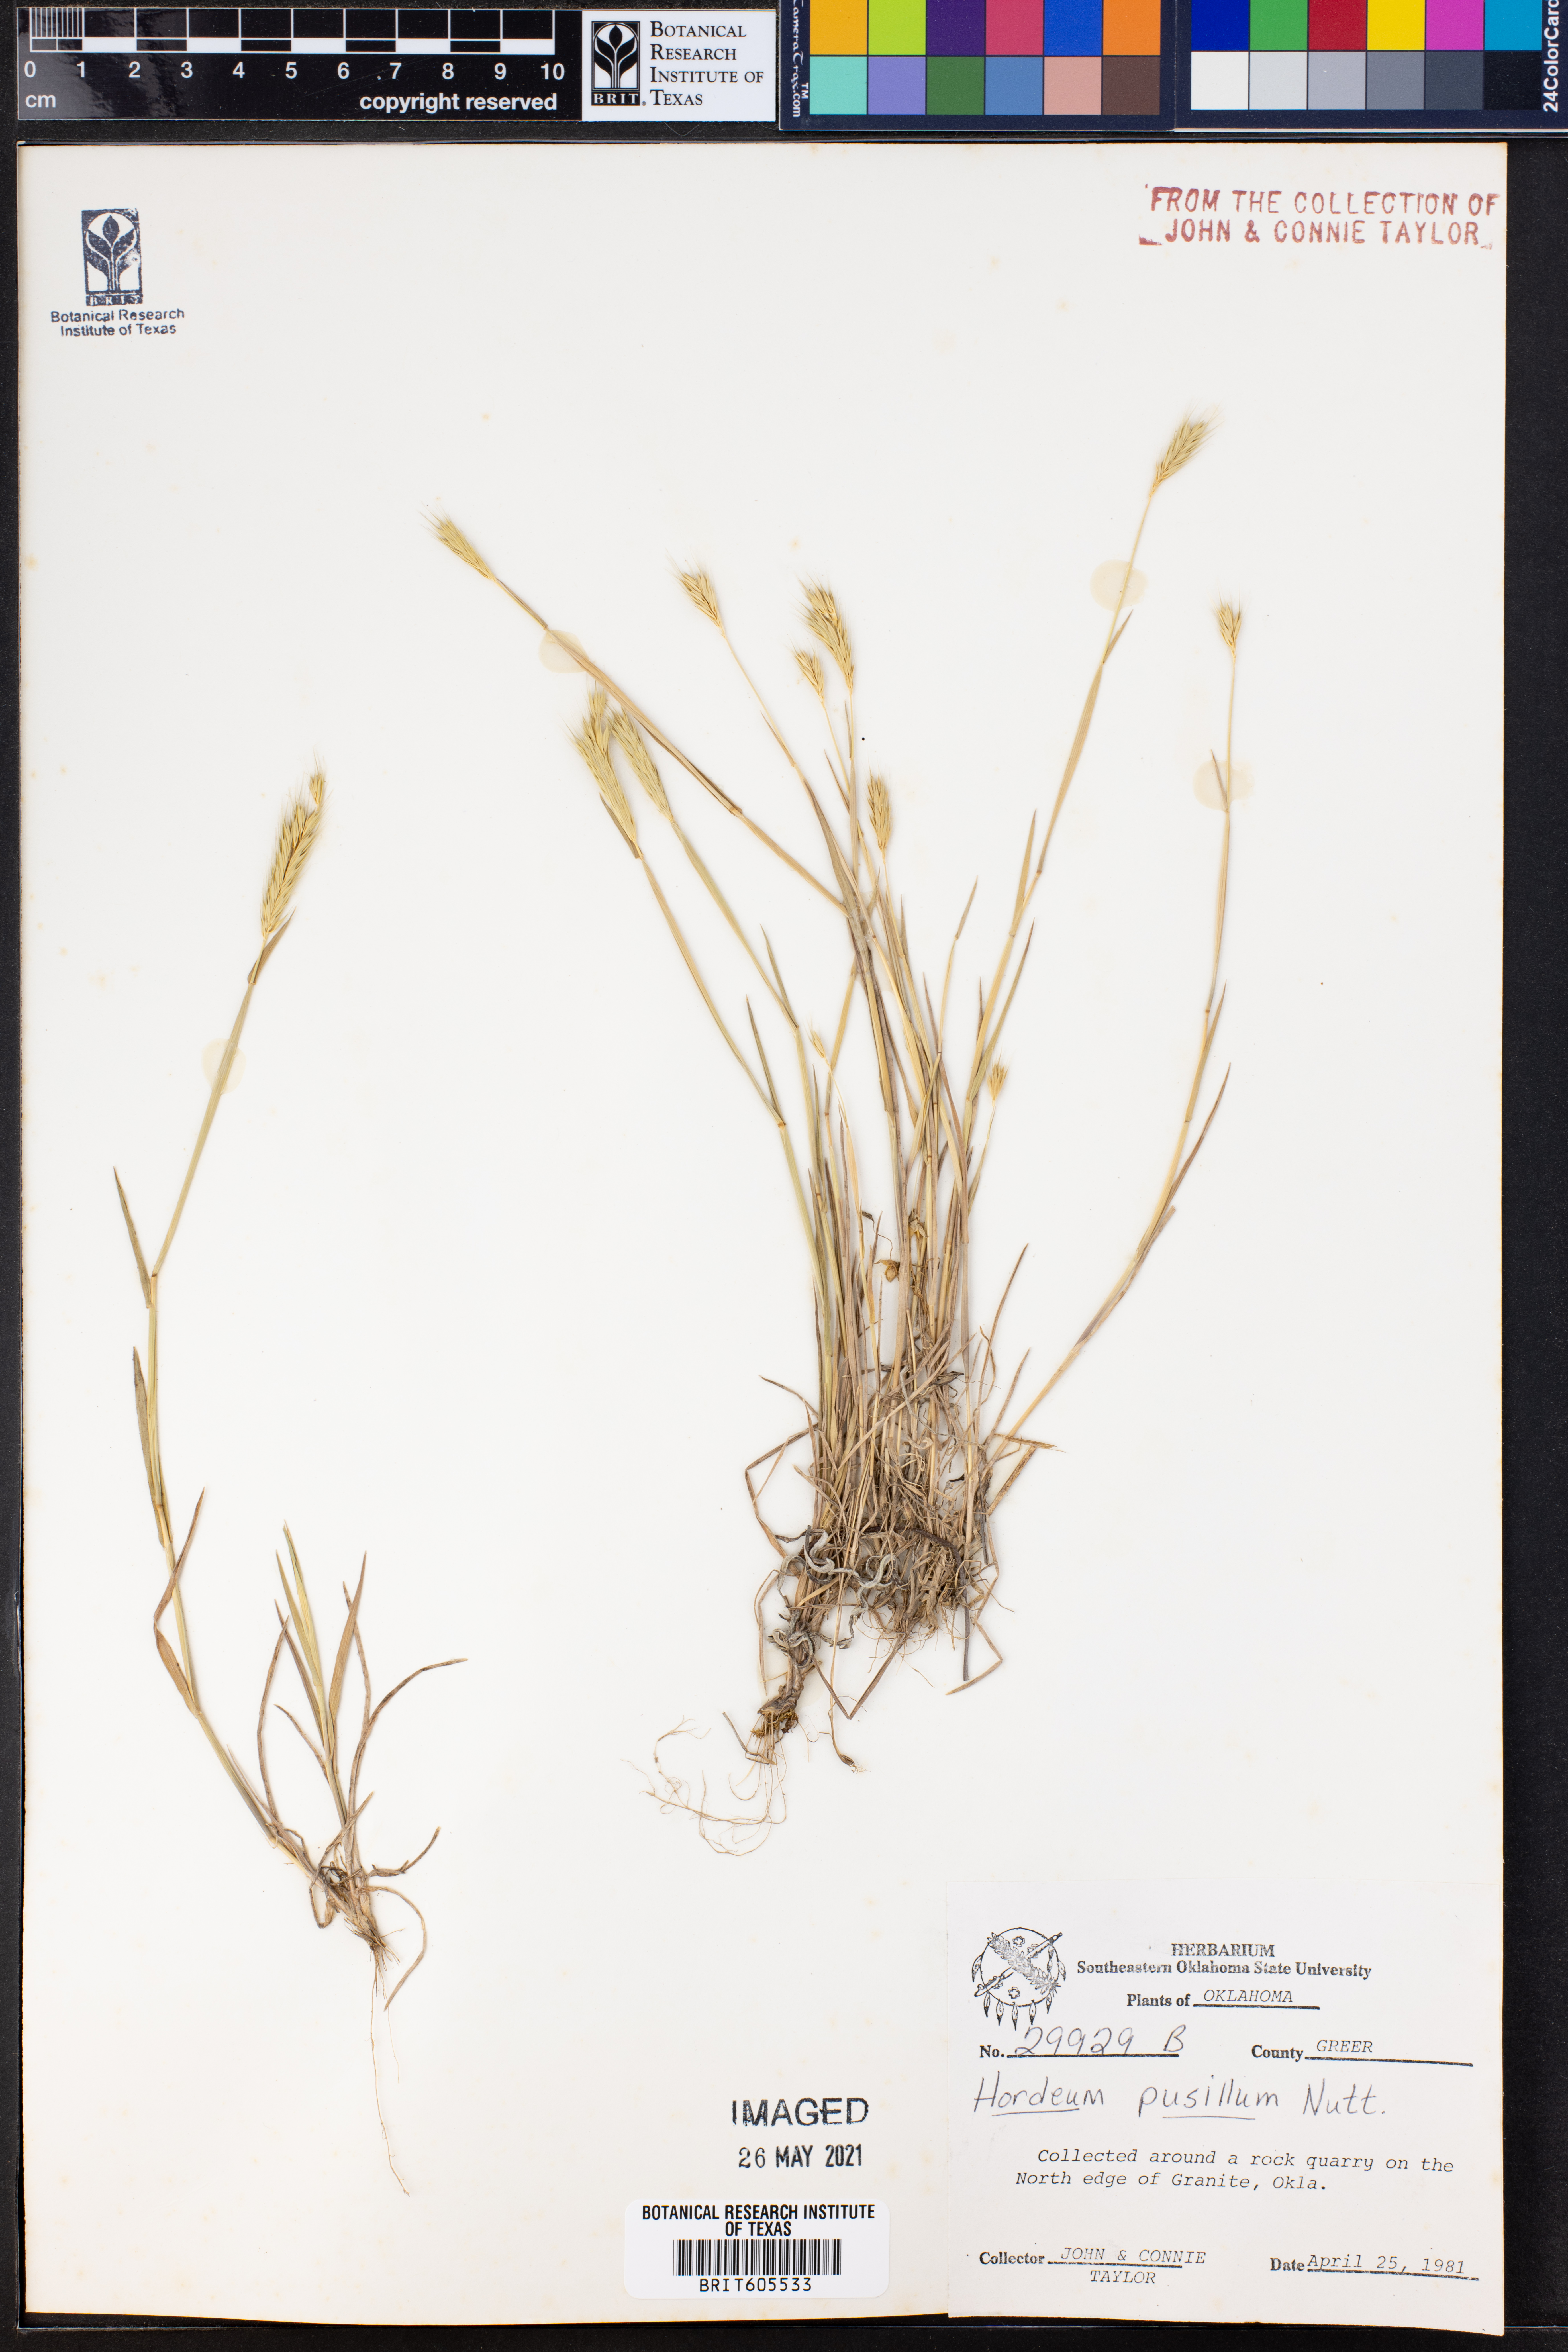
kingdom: Plantae
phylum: Tracheophyta
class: Liliopsida
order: Poales
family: Poaceae
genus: Hordeum
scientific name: Hordeum pusillum
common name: Little barley
